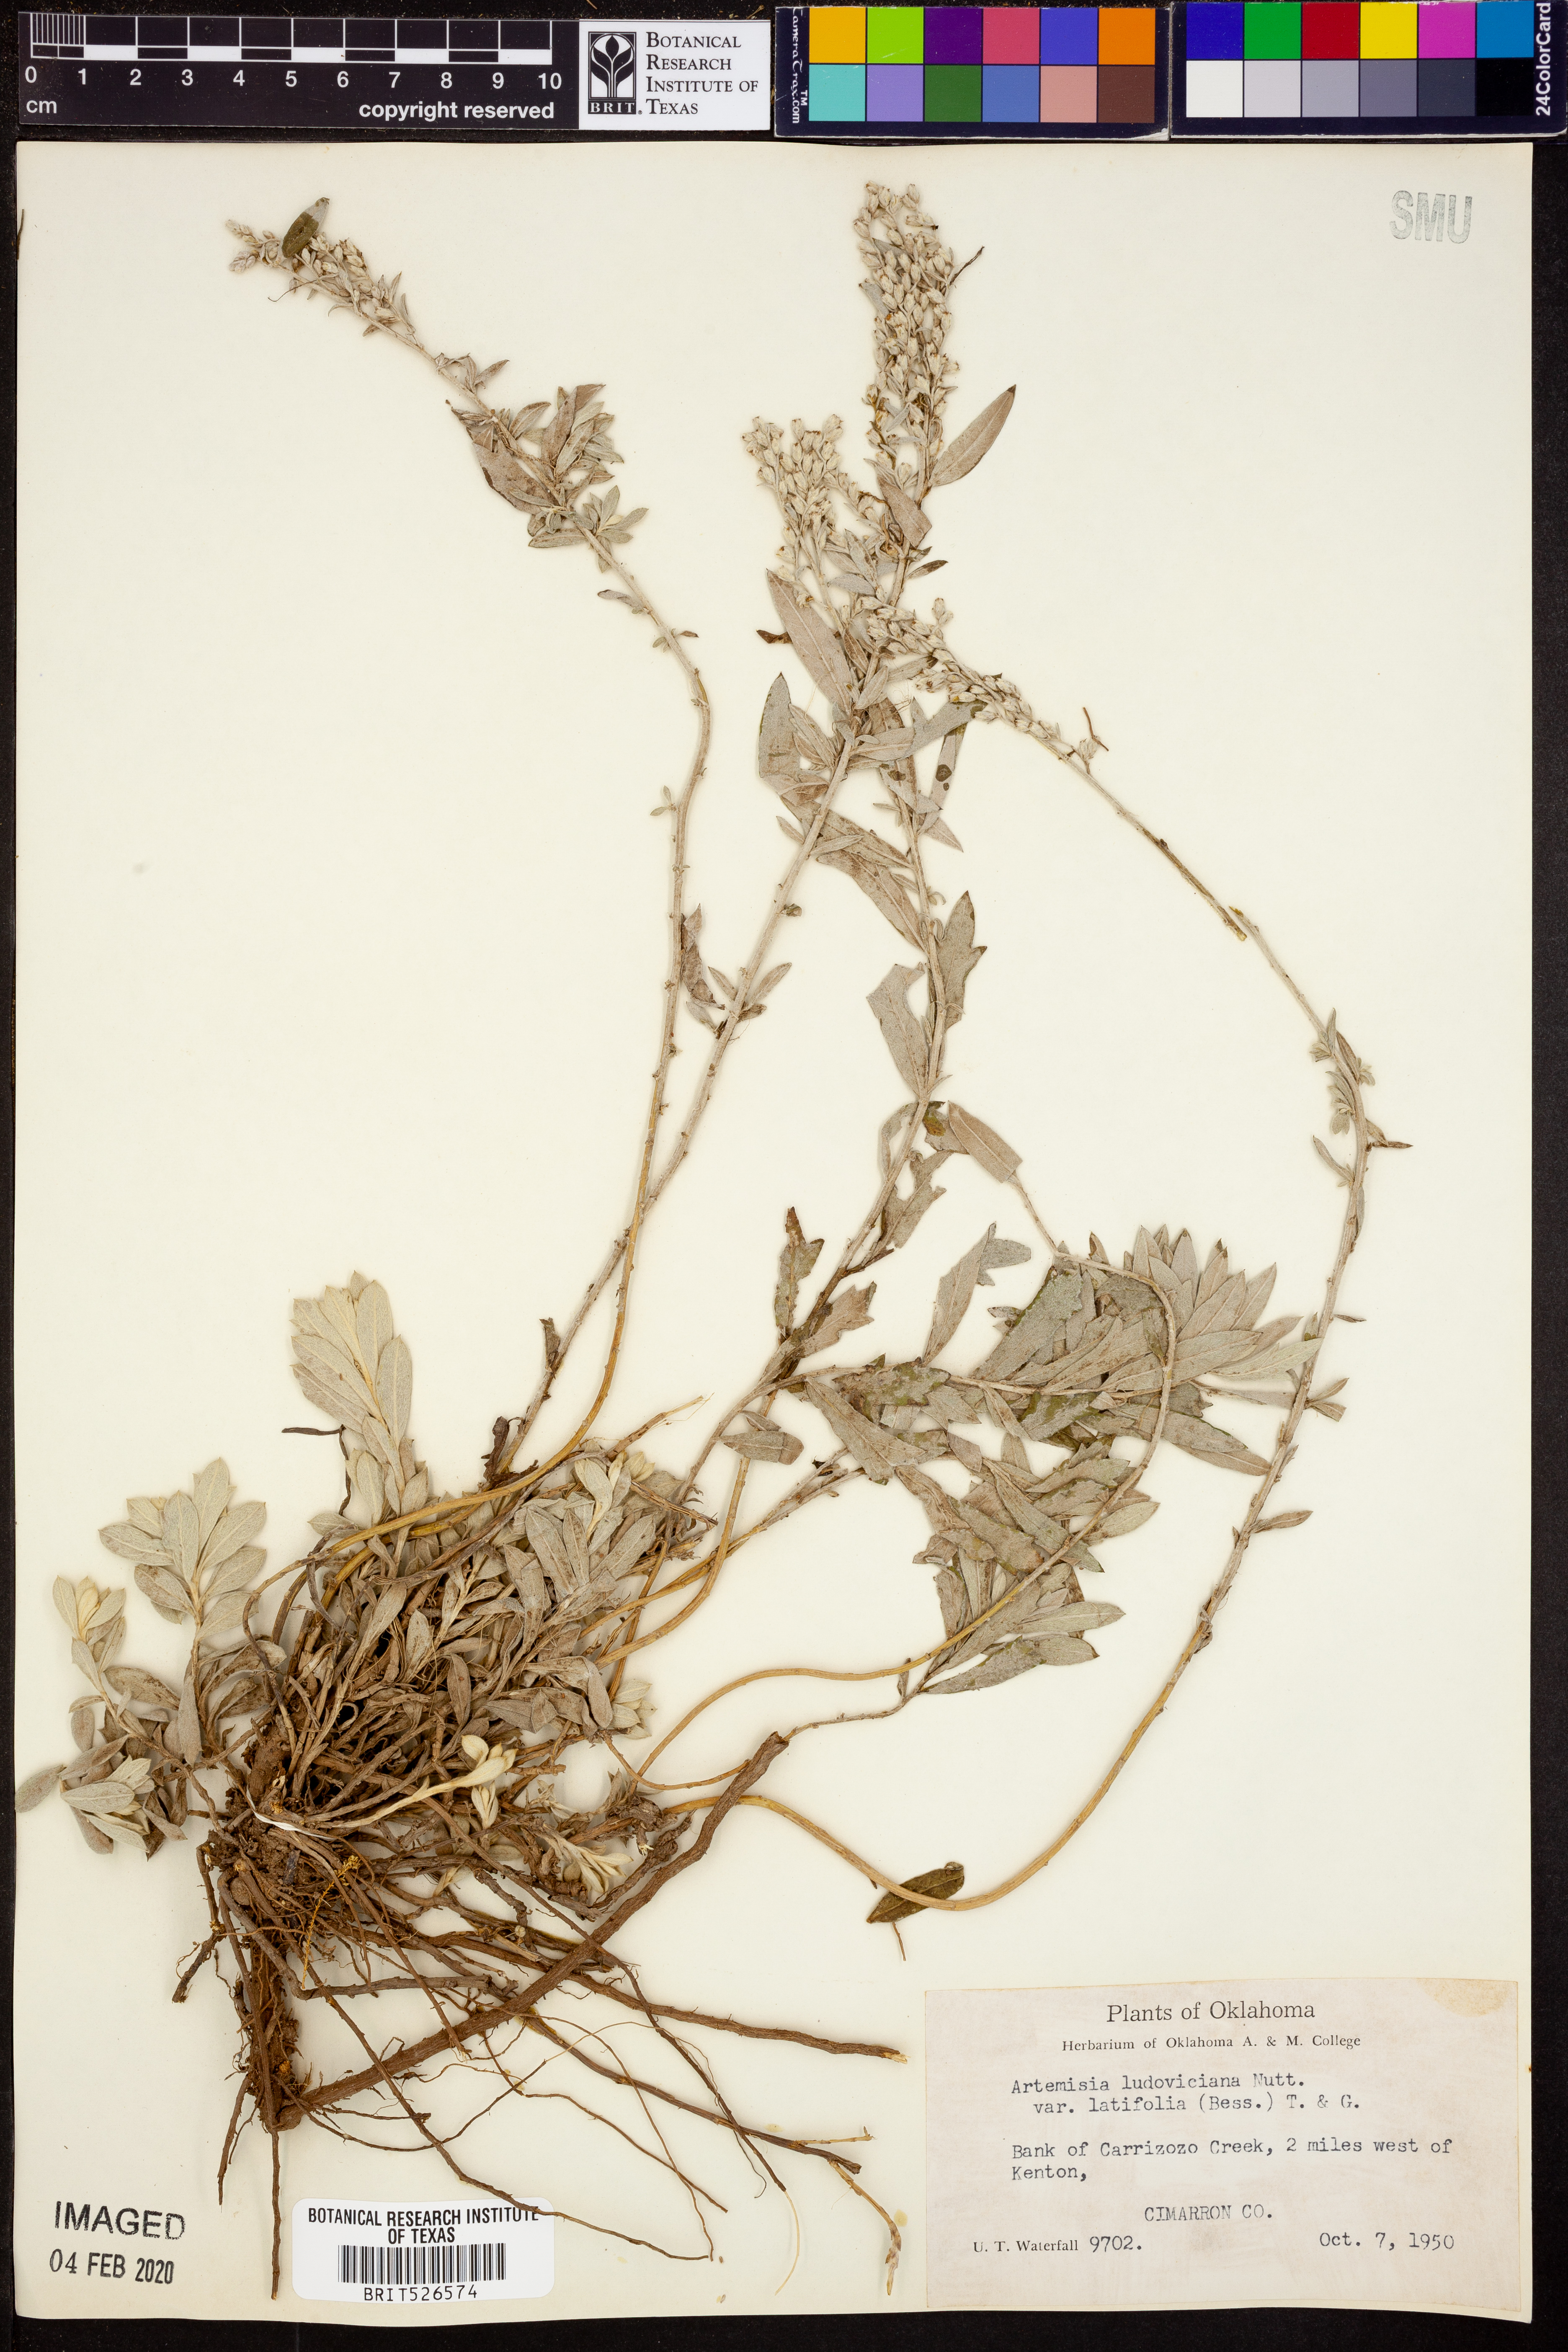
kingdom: Plantae
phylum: Tracheophyta
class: Magnoliopsida
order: Asterales
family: Asteraceae
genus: Artemisia
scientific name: Artemisia ludoviciana
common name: Western mugwort
